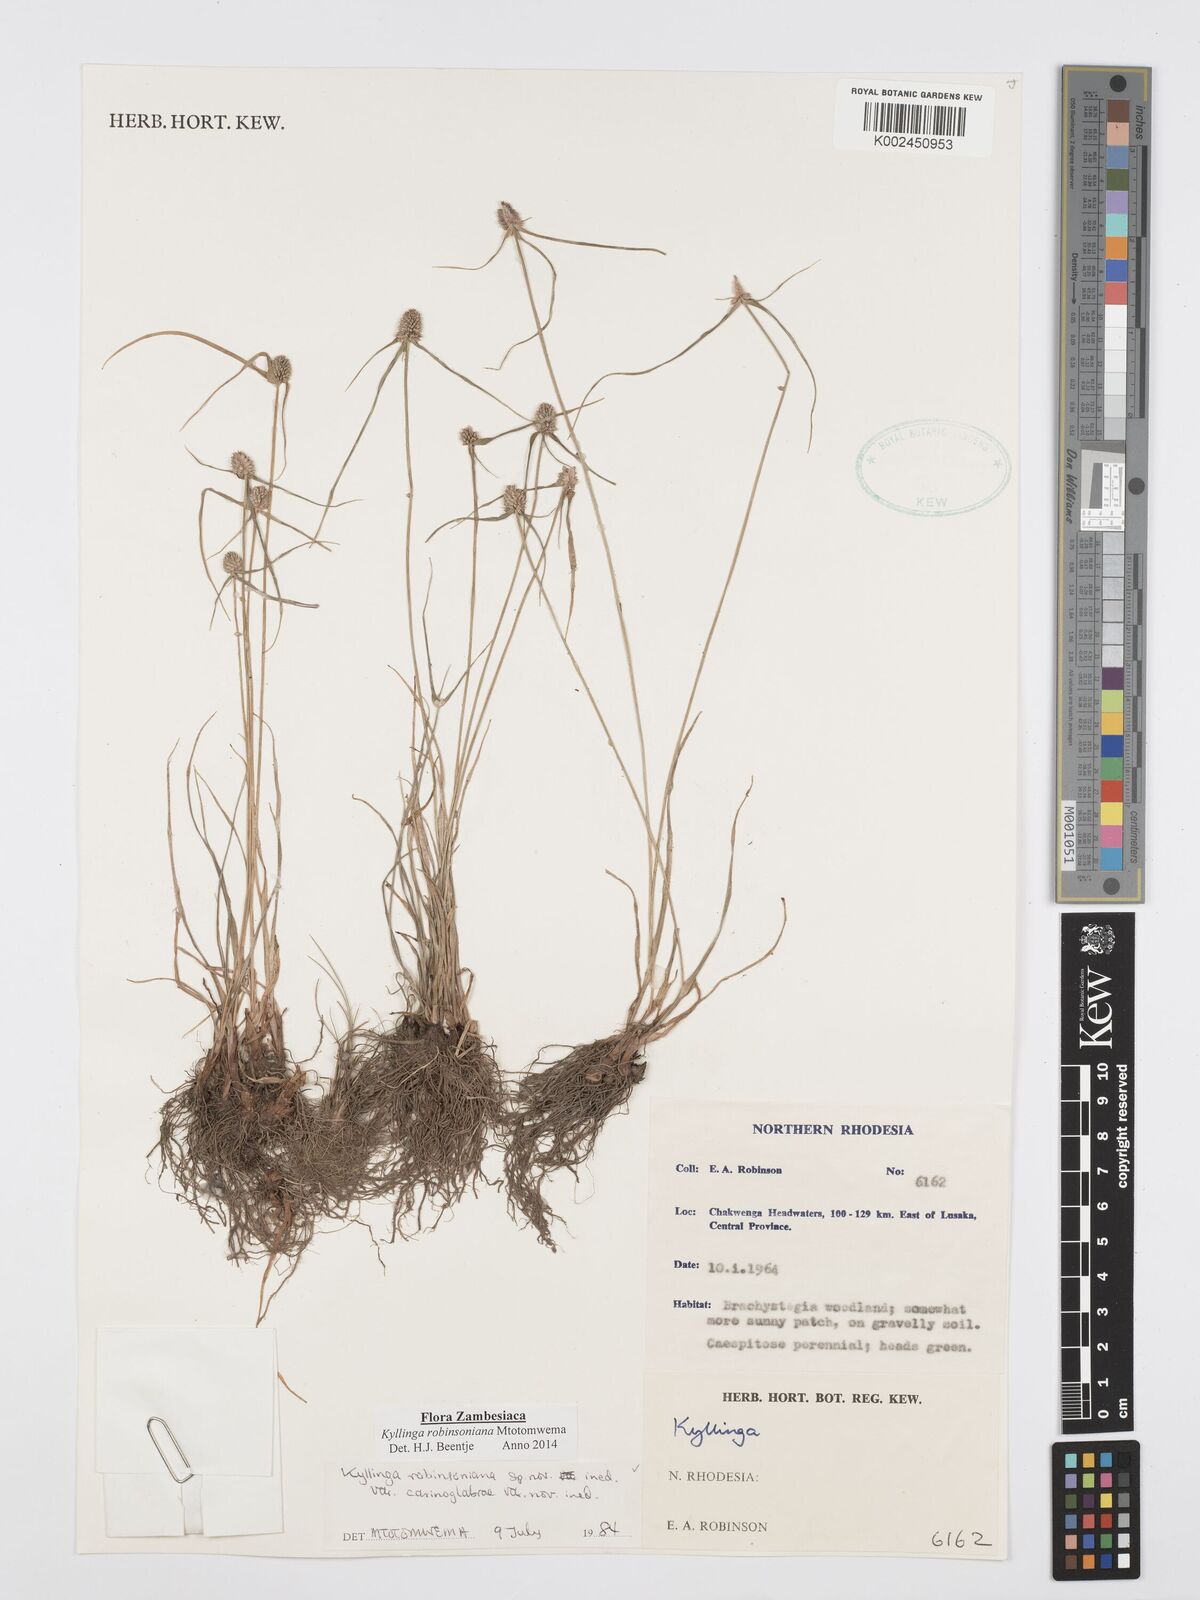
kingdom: Plantae
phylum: Tracheophyta
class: Liliopsida
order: Poales
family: Cyperaceae
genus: Cyperus
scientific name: Cyperus robinsonianus
